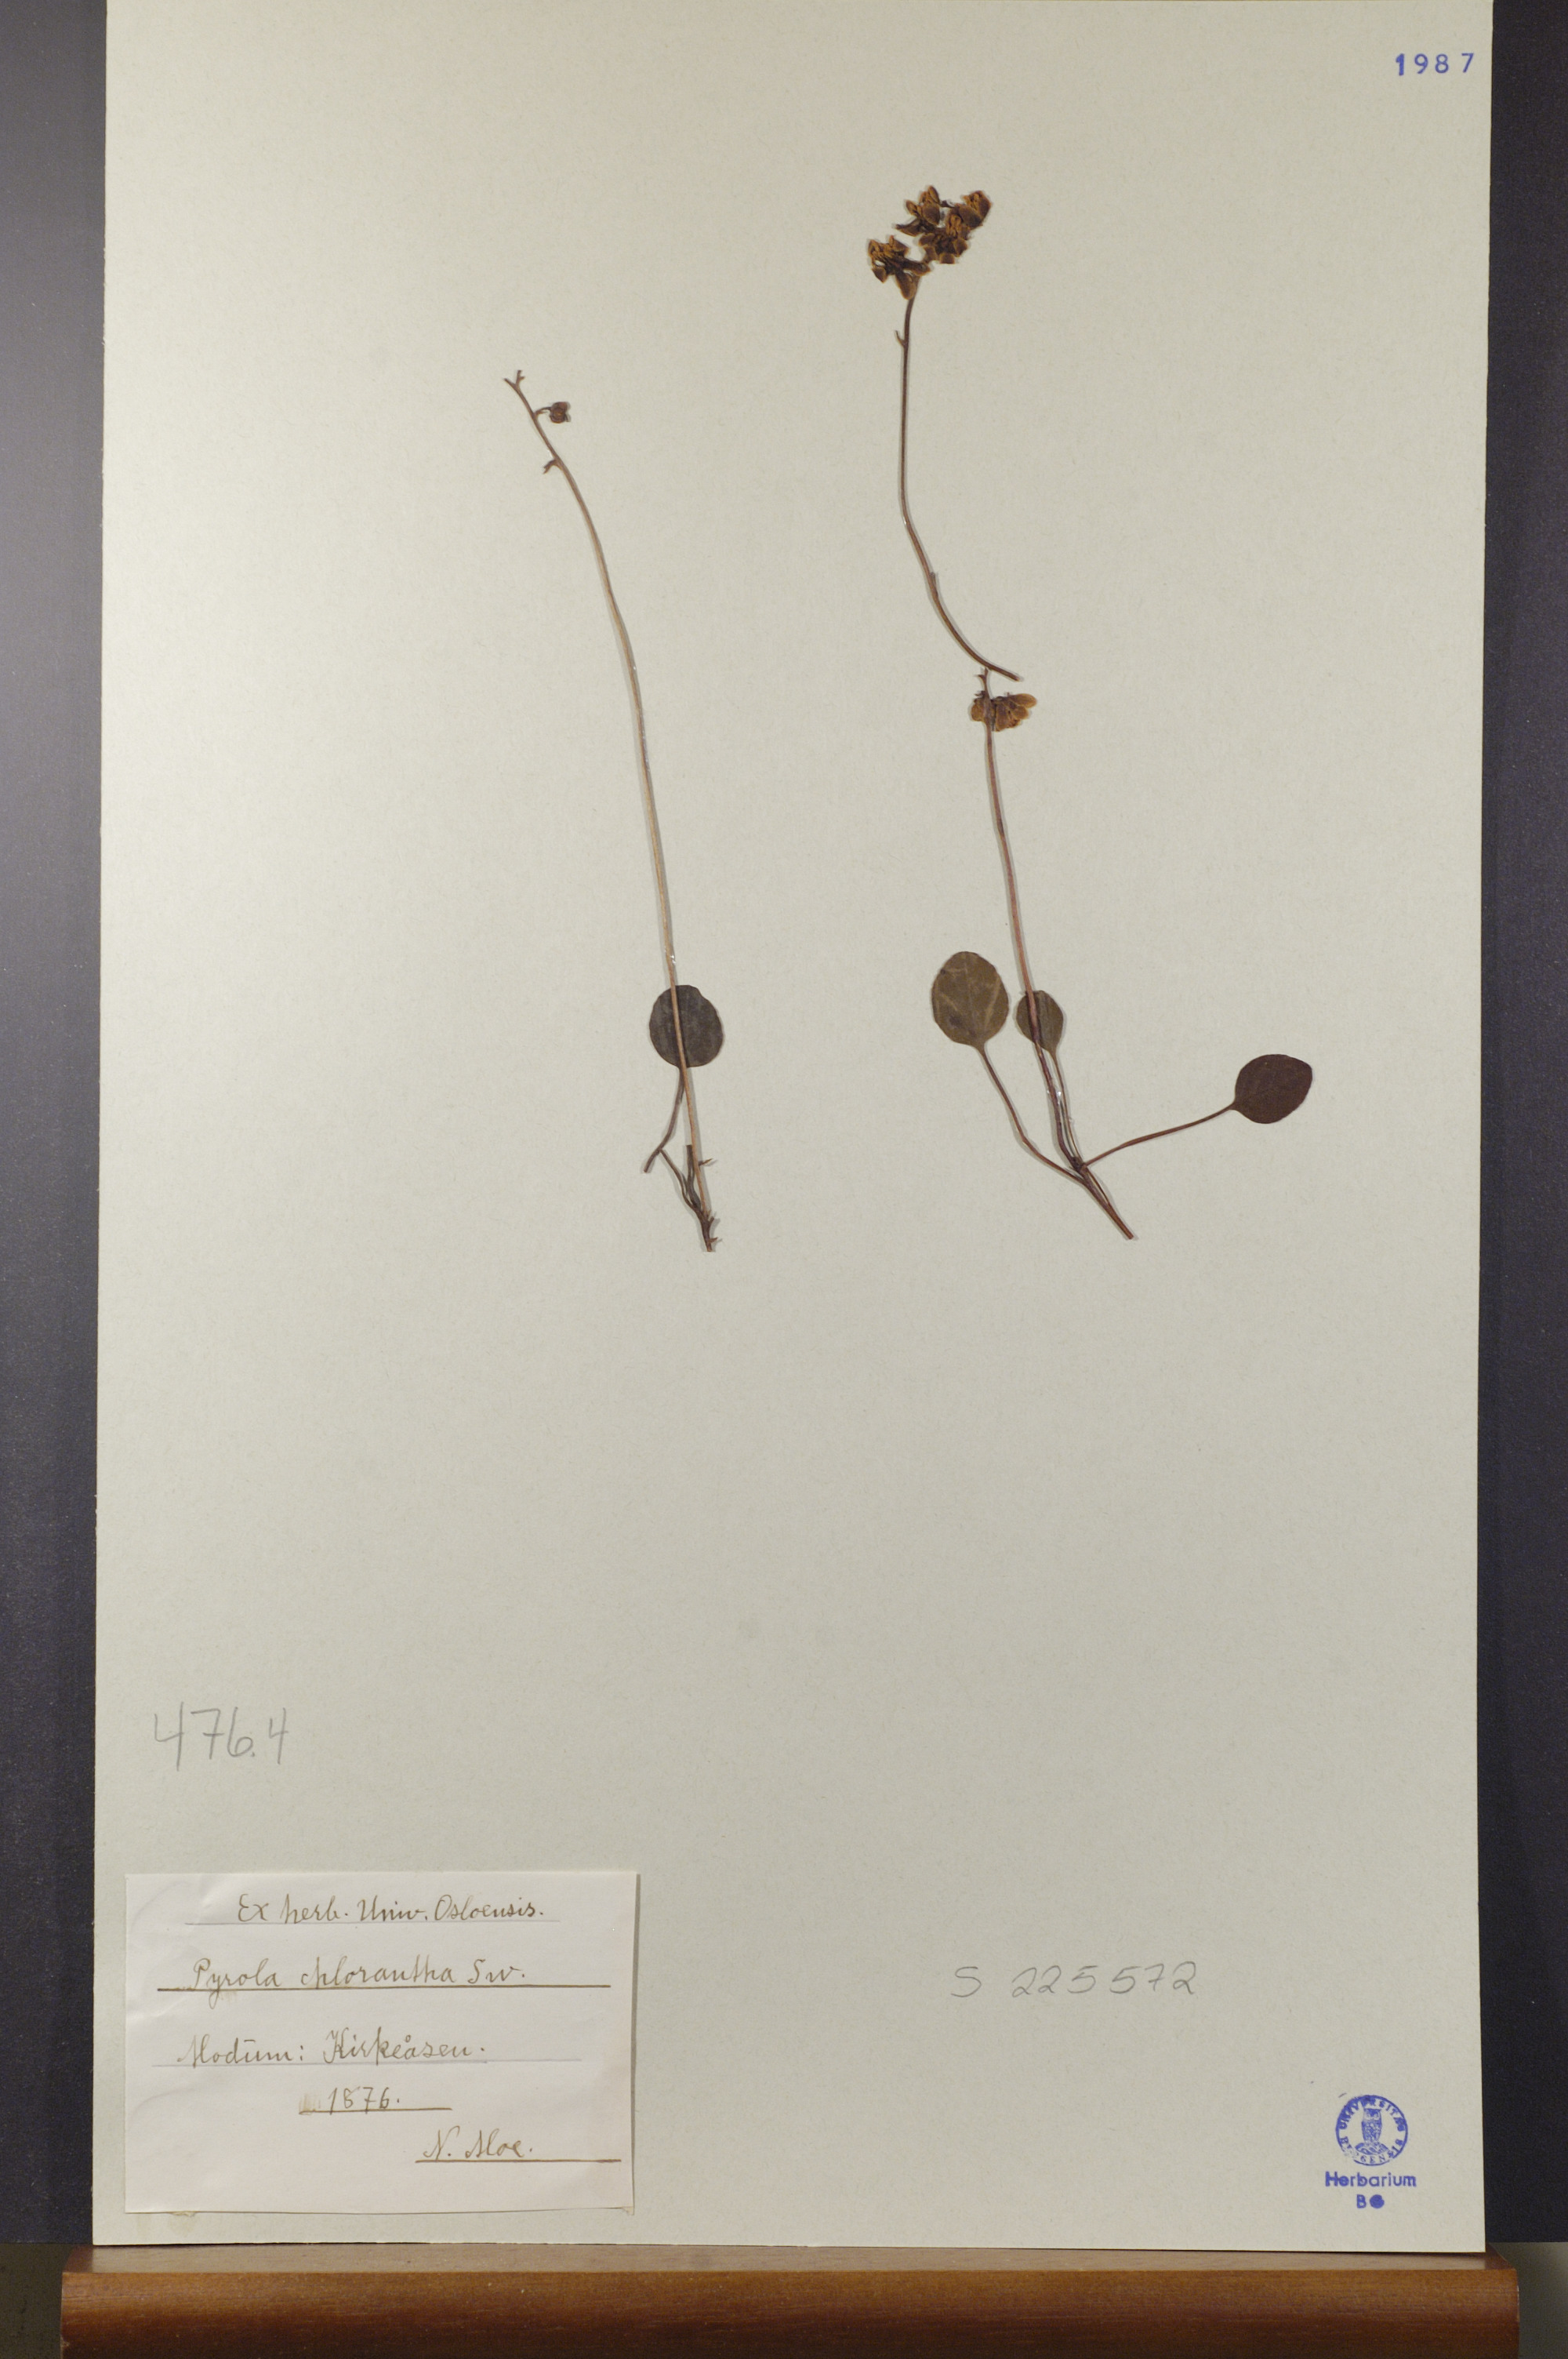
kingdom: Plantae
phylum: Tracheophyta
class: Magnoliopsida
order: Ericales
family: Ericaceae
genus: Pyrola
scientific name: Pyrola chlorantha
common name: Green wintergreen
